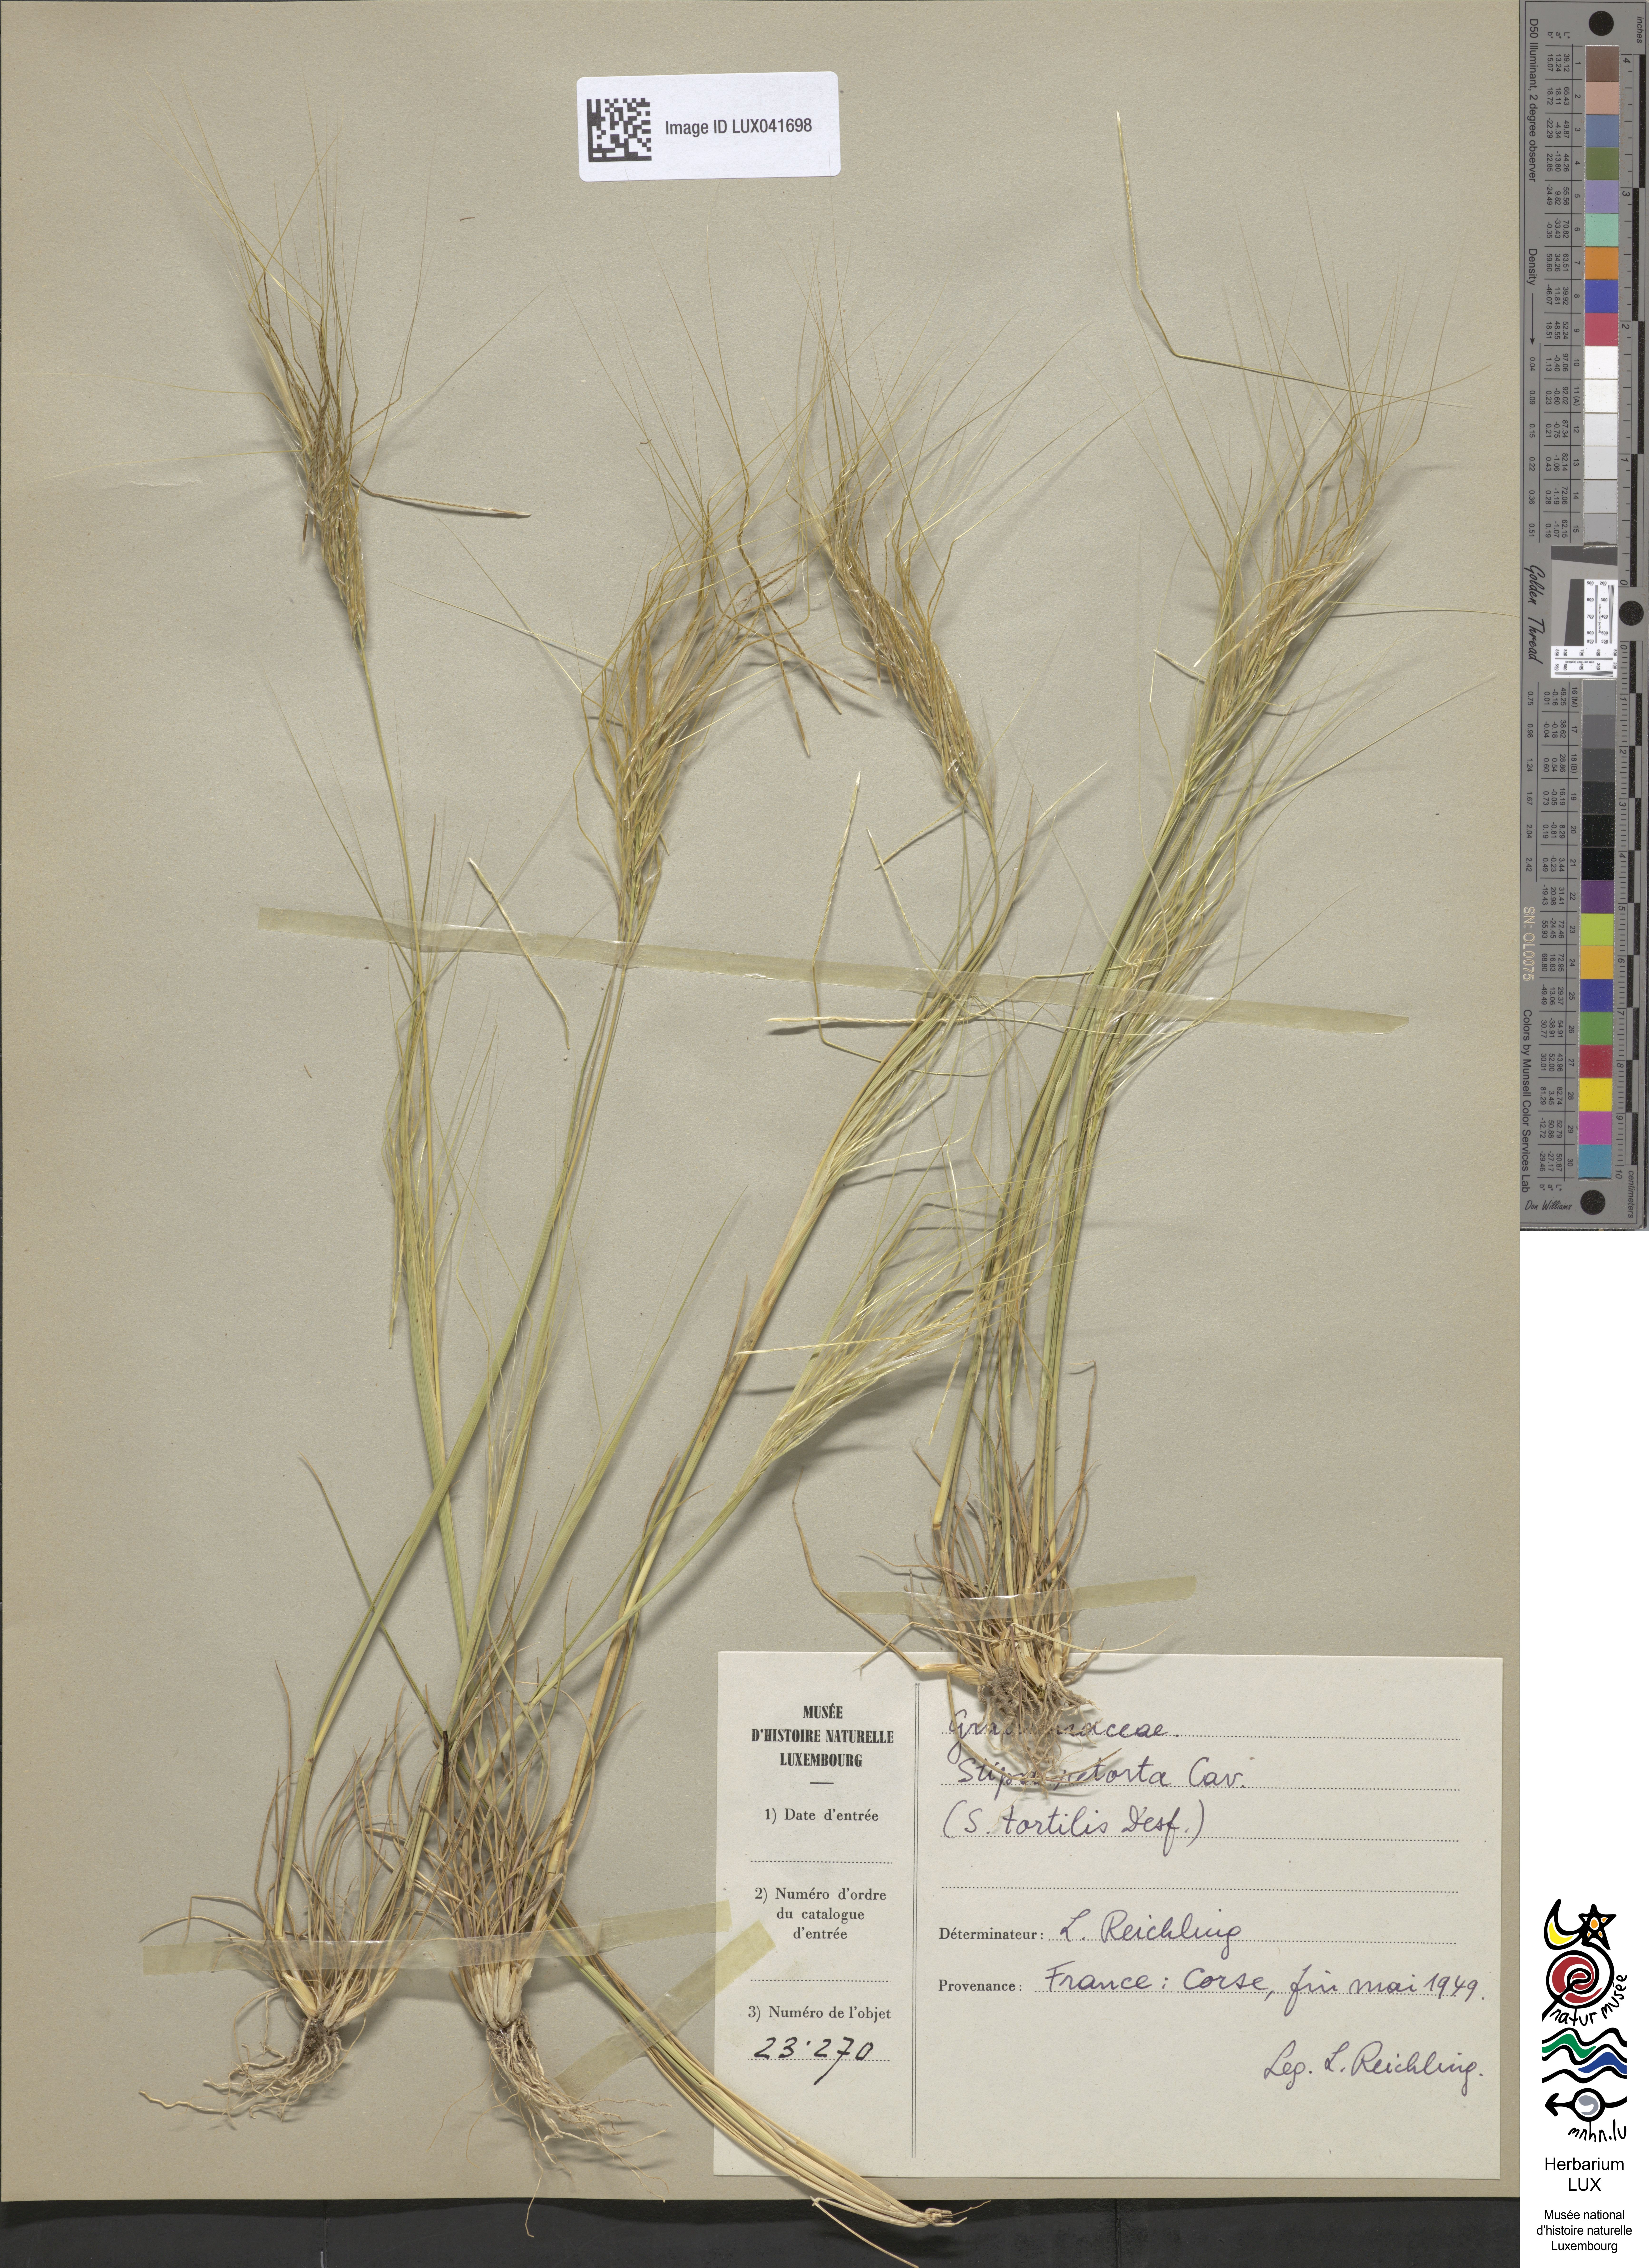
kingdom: Plantae
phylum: Tracheophyta
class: Liliopsida
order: Poales
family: Poaceae
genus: Stipellula
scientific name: Stipellula capensis
